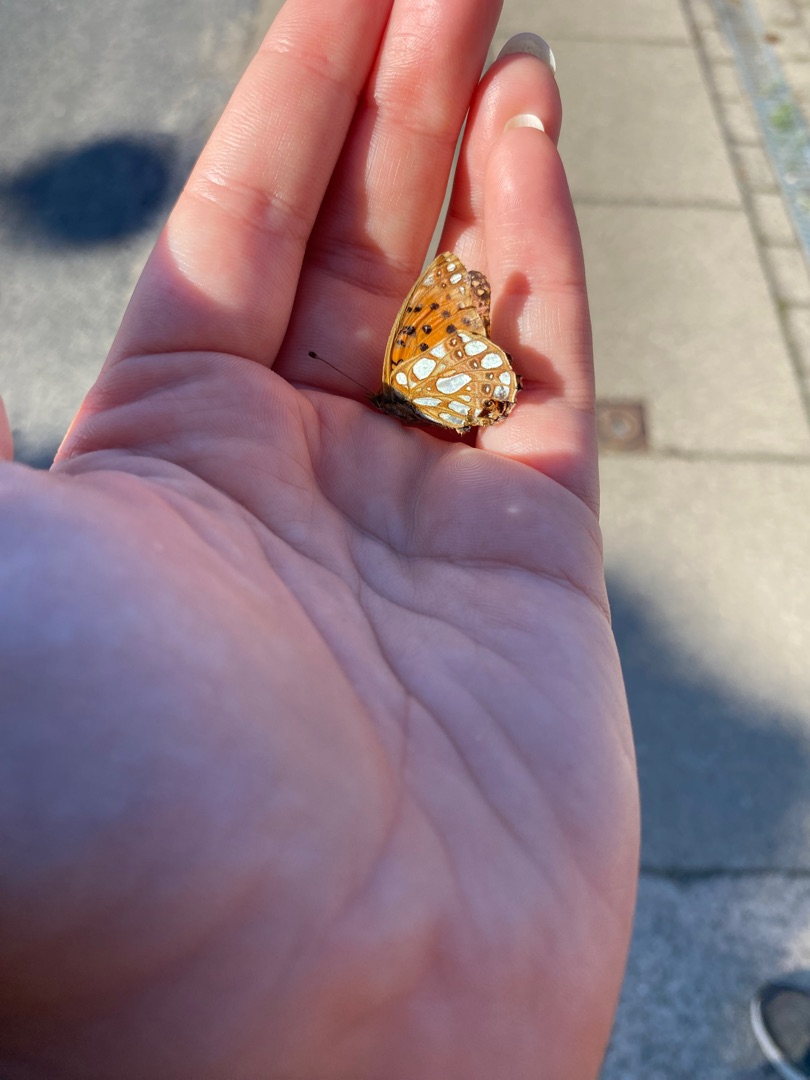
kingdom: Animalia
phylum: Arthropoda
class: Insecta
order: Lepidoptera
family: Nymphalidae
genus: Issoria
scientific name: Issoria lathonia
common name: Storplettet perlemorsommerfugl
